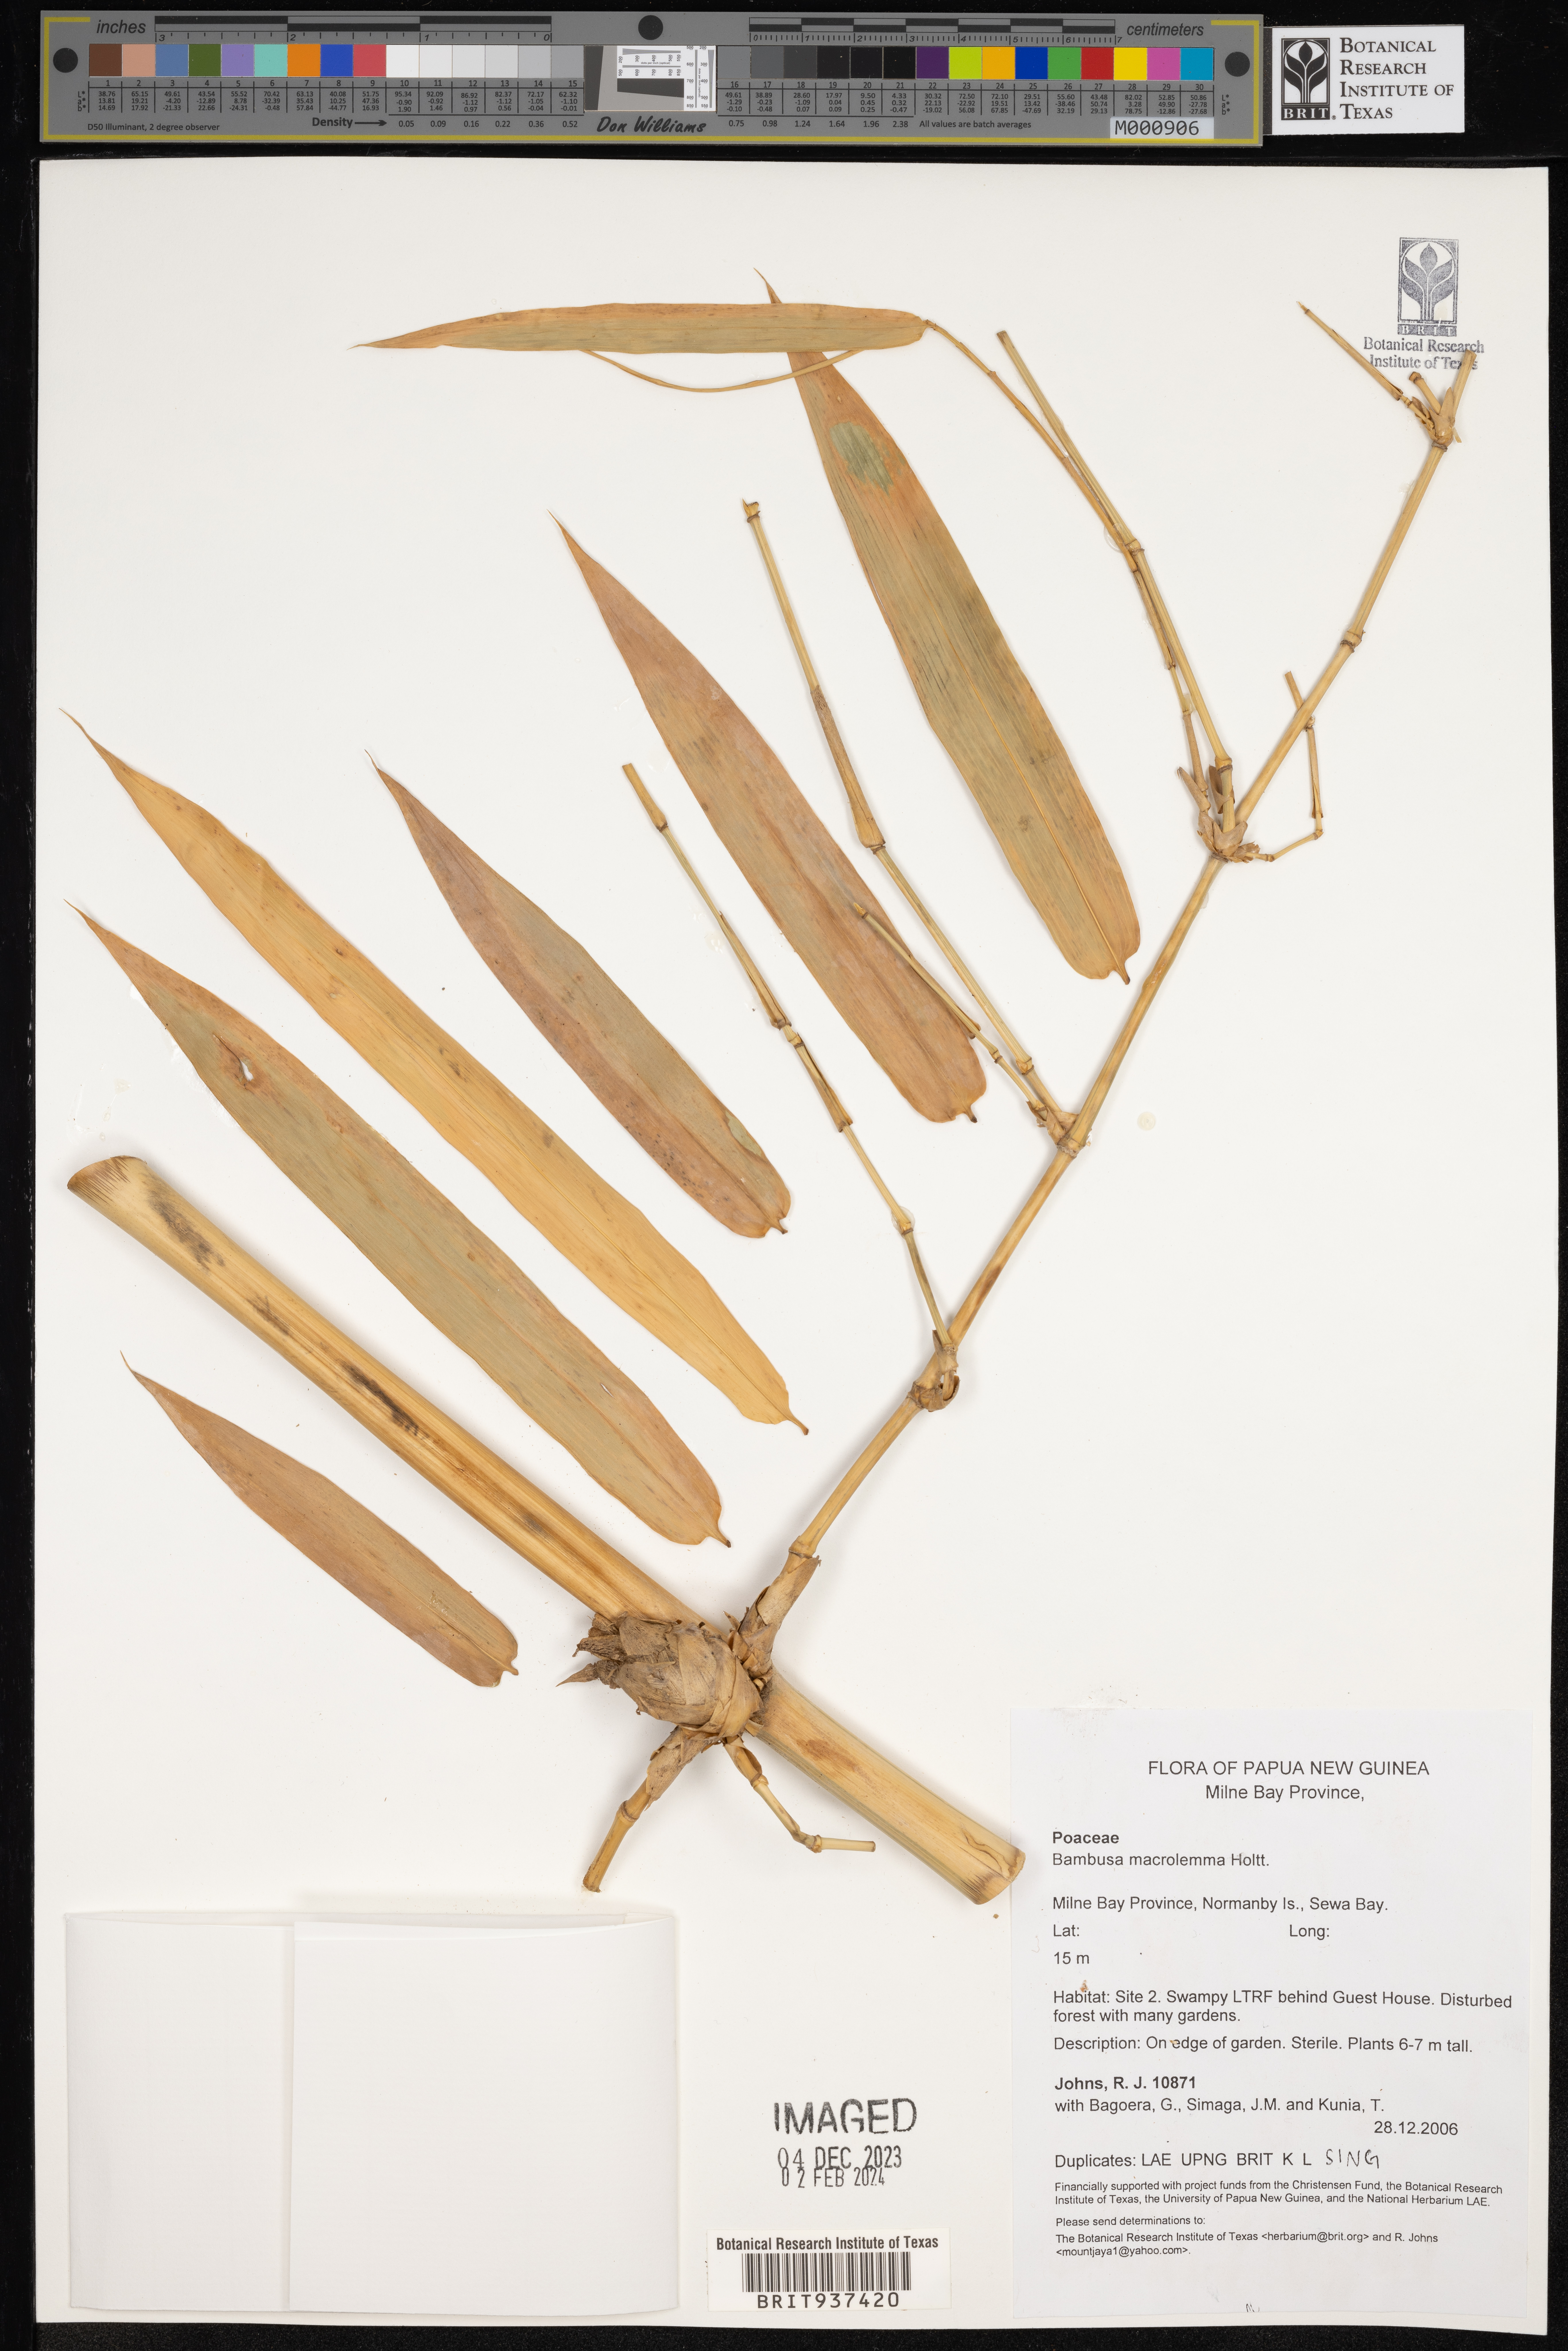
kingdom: Plantae
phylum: Tracheophyta
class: Liliopsida
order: Poales
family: Poaceae
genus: Bambusa
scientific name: Bambusa
